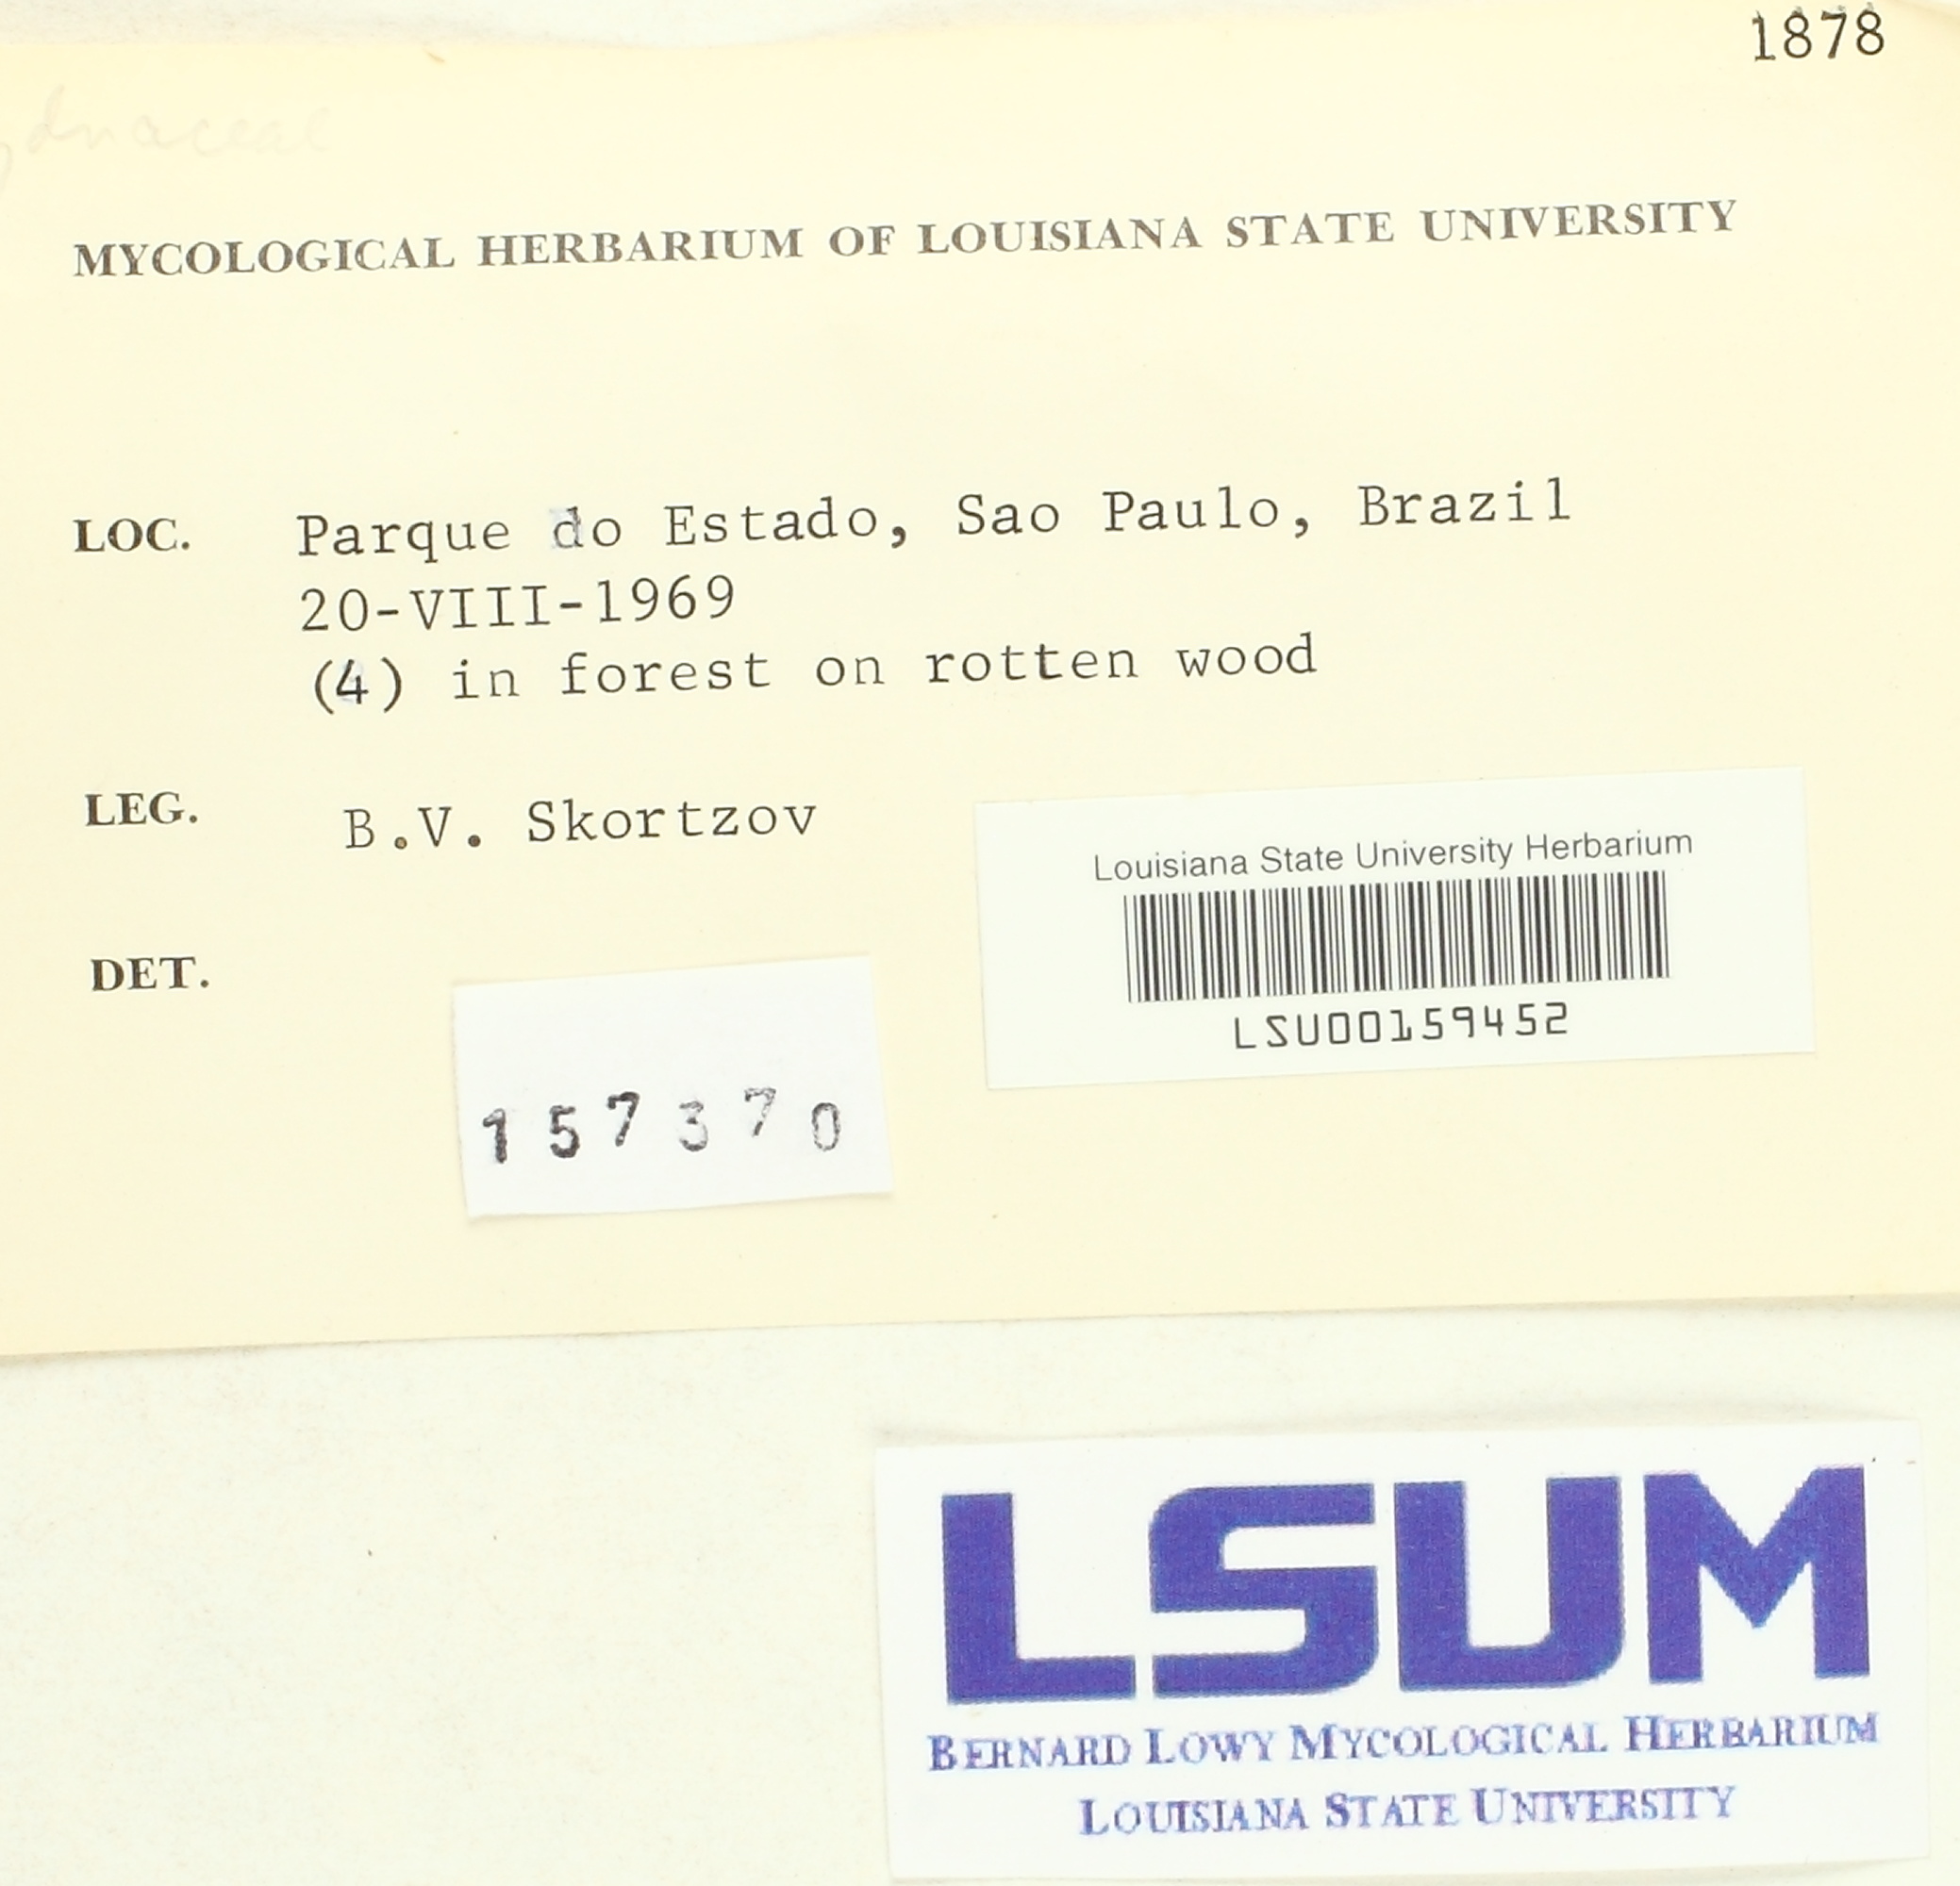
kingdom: Fungi
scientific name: Fungi
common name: Fungi
